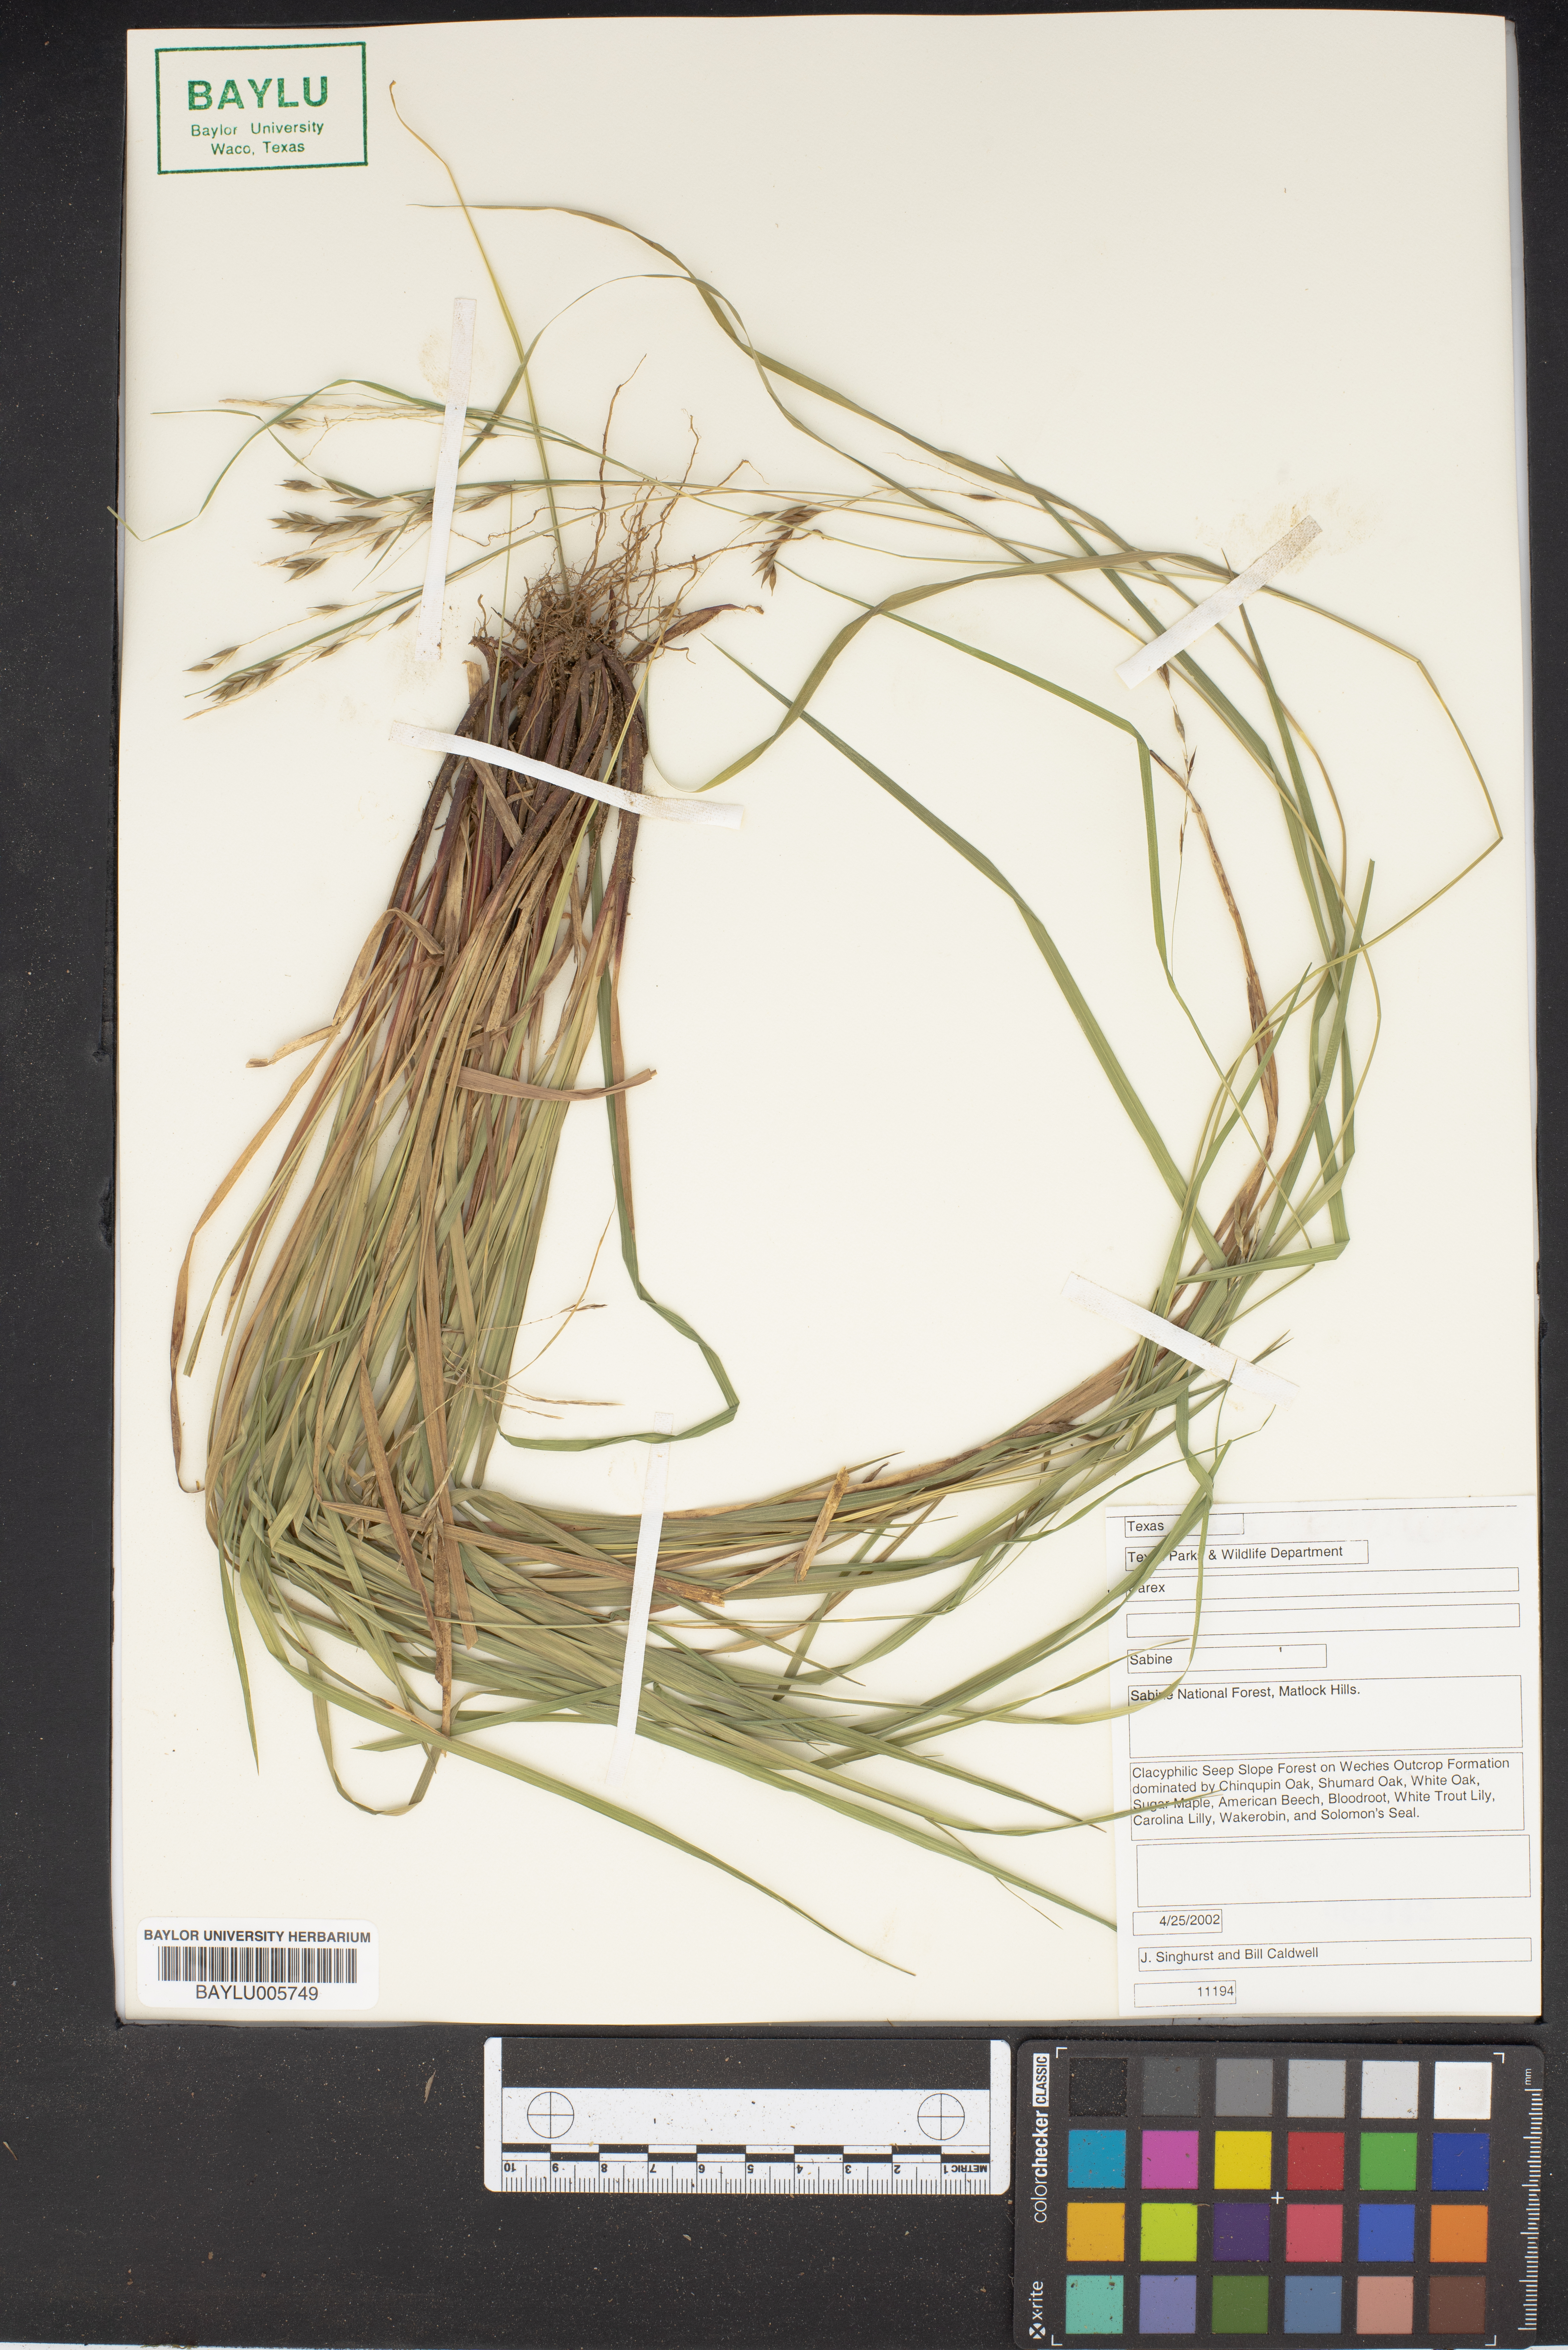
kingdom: Plantae
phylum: Tracheophyta
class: Liliopsida
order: Poales
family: Cyperaceae
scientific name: Cyperaceae
